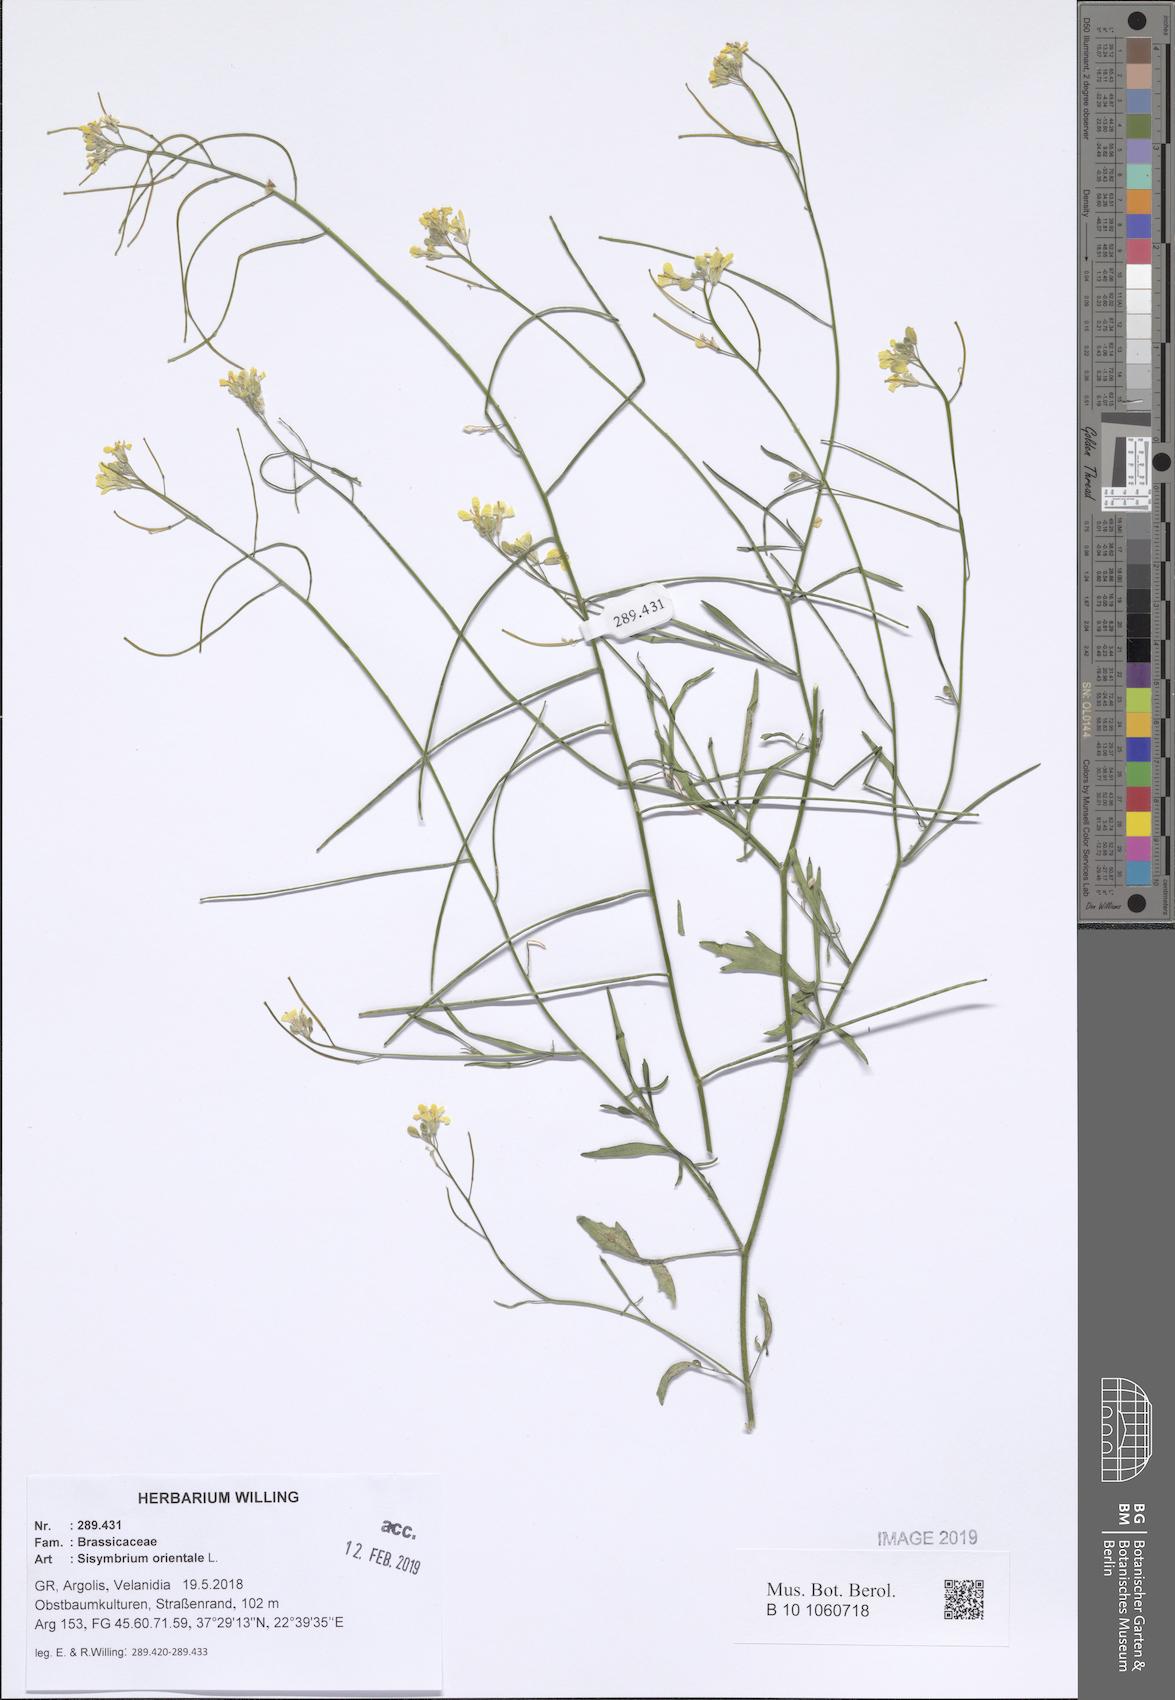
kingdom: Plantae
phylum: Tracheophyta
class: Magnoliopsida
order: Brassicales
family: Brassicaceae
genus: Sisymbrium
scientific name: Sisymbrium orientale
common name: Eastern rocket
